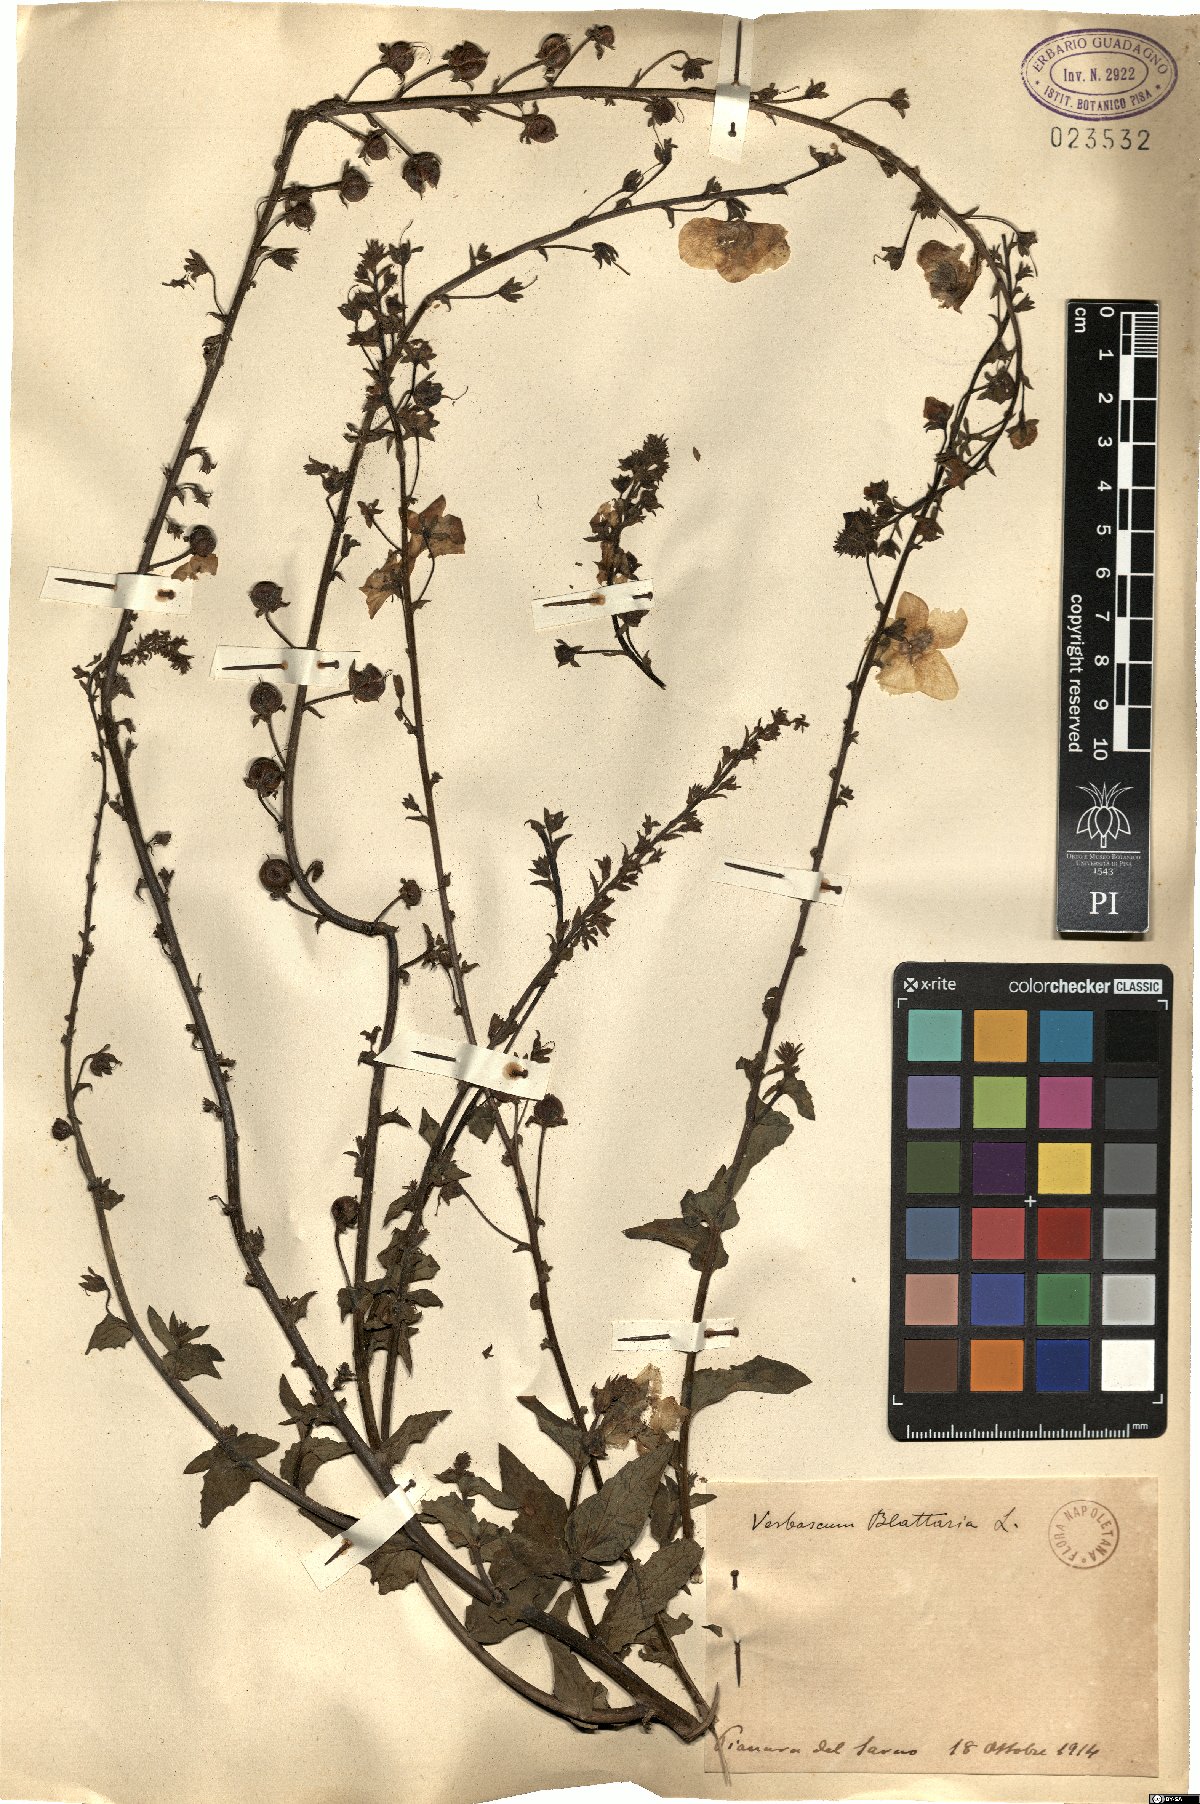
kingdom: Plantae
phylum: Tracheophyta
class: Magnoliopsida
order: Lamiales
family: Scrophulariaceae
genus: Verbascum
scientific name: Verbascum blattaria
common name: Moth mullein
